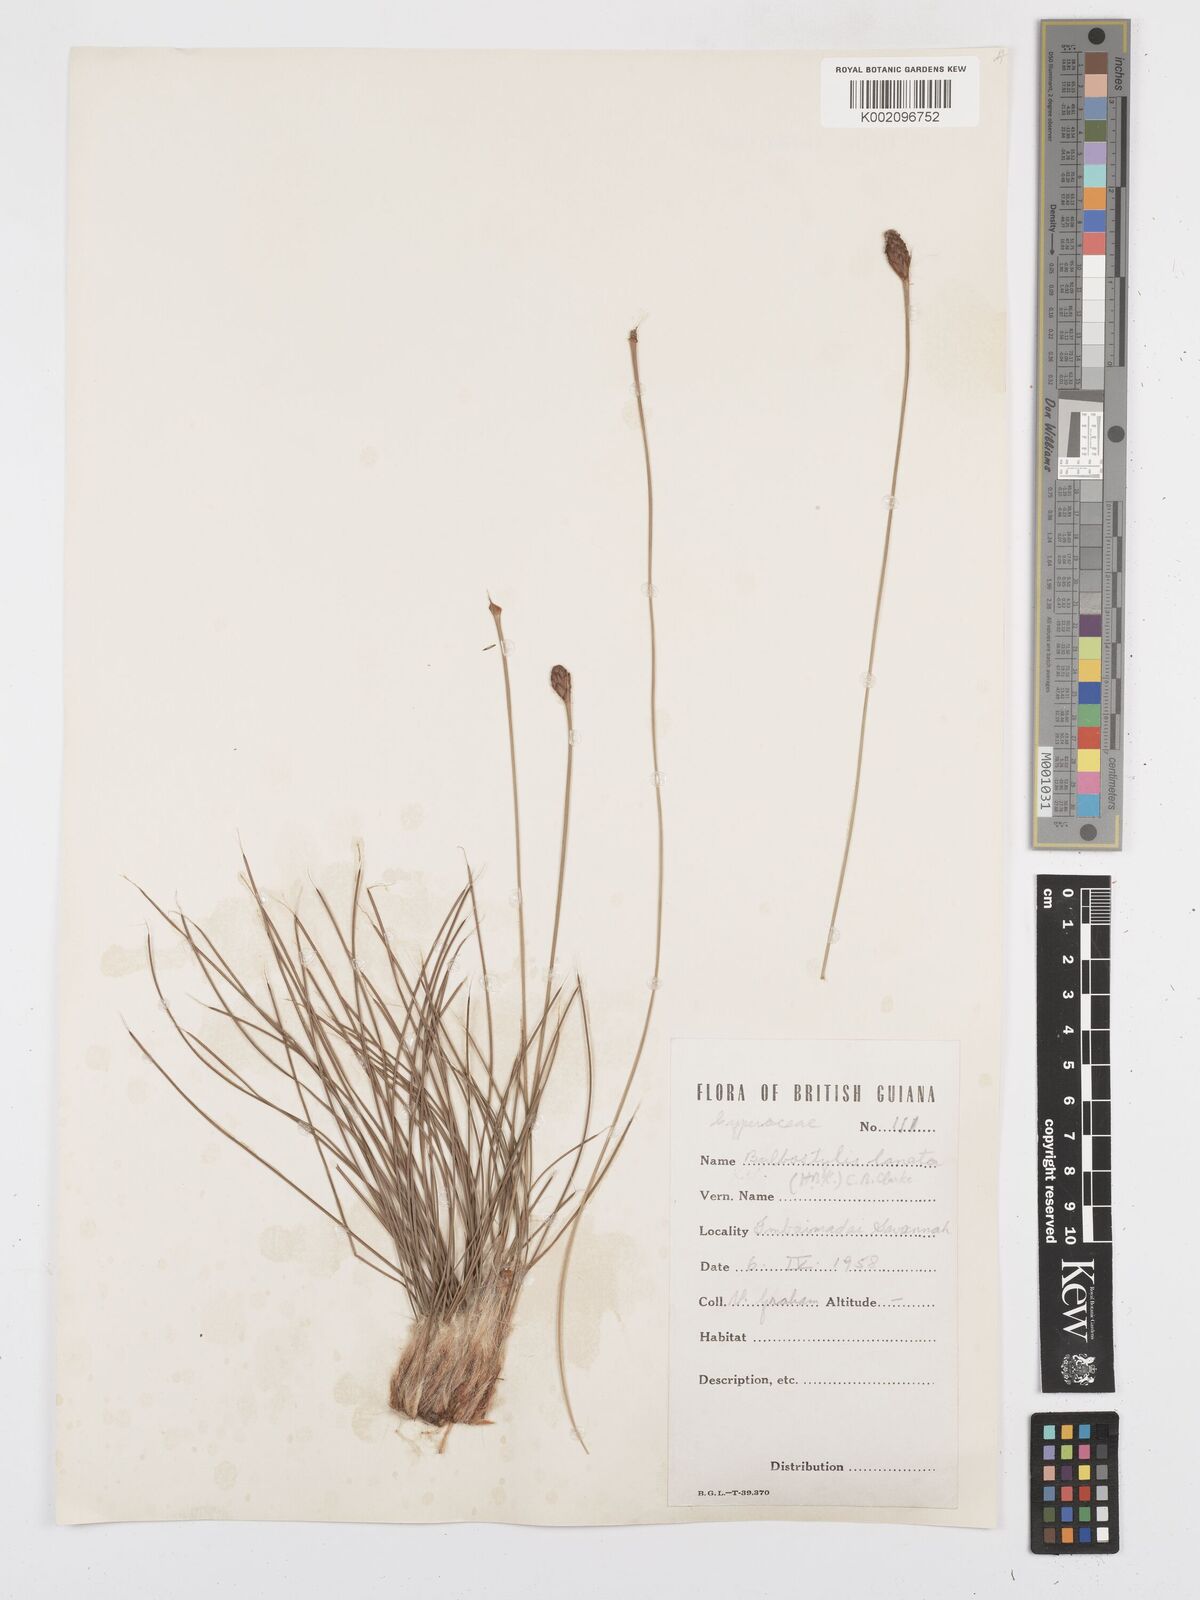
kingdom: Plantae
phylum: Tracheophyta
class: Liliopsida
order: Poales
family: Cyperaceae
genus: Bulbostylis
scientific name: Bulbostylis lanata
